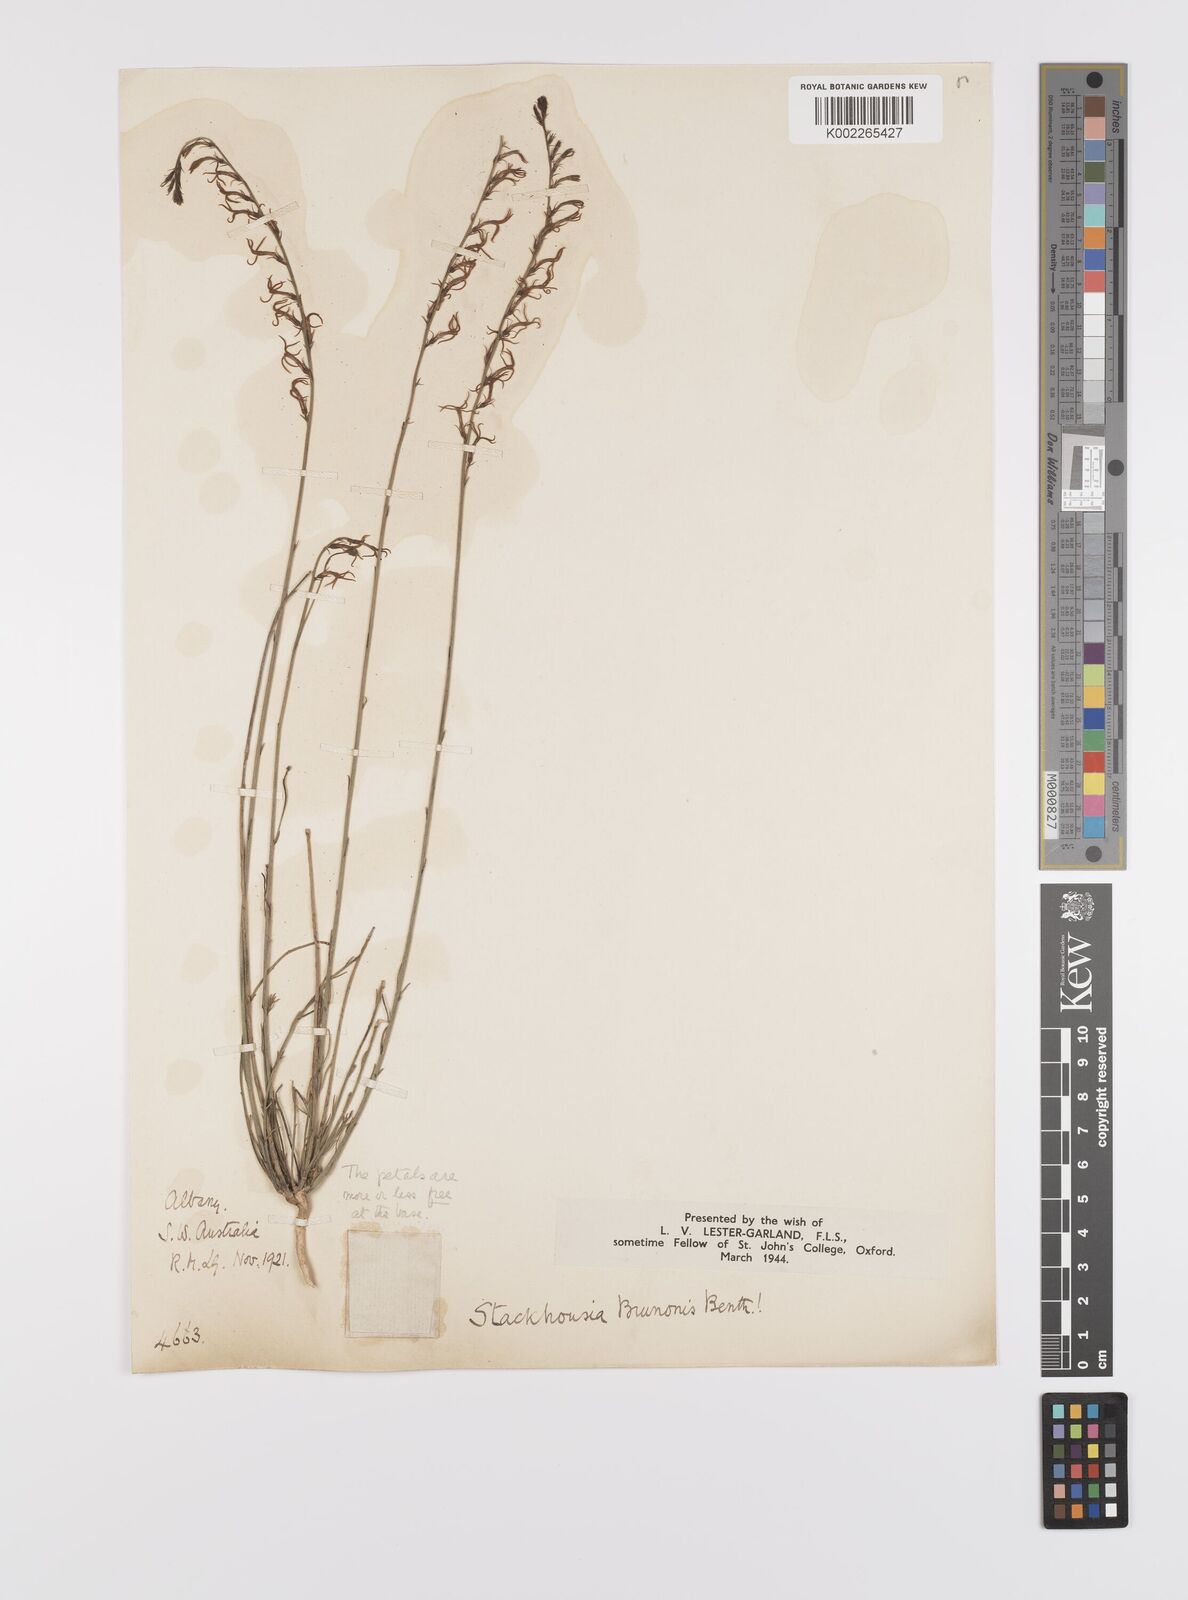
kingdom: Plantae
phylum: Tracheophyta
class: Magnoliopsida
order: Celastrales
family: Celastraceae
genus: Tripterococcus
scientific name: Tripterococcus brunonis
